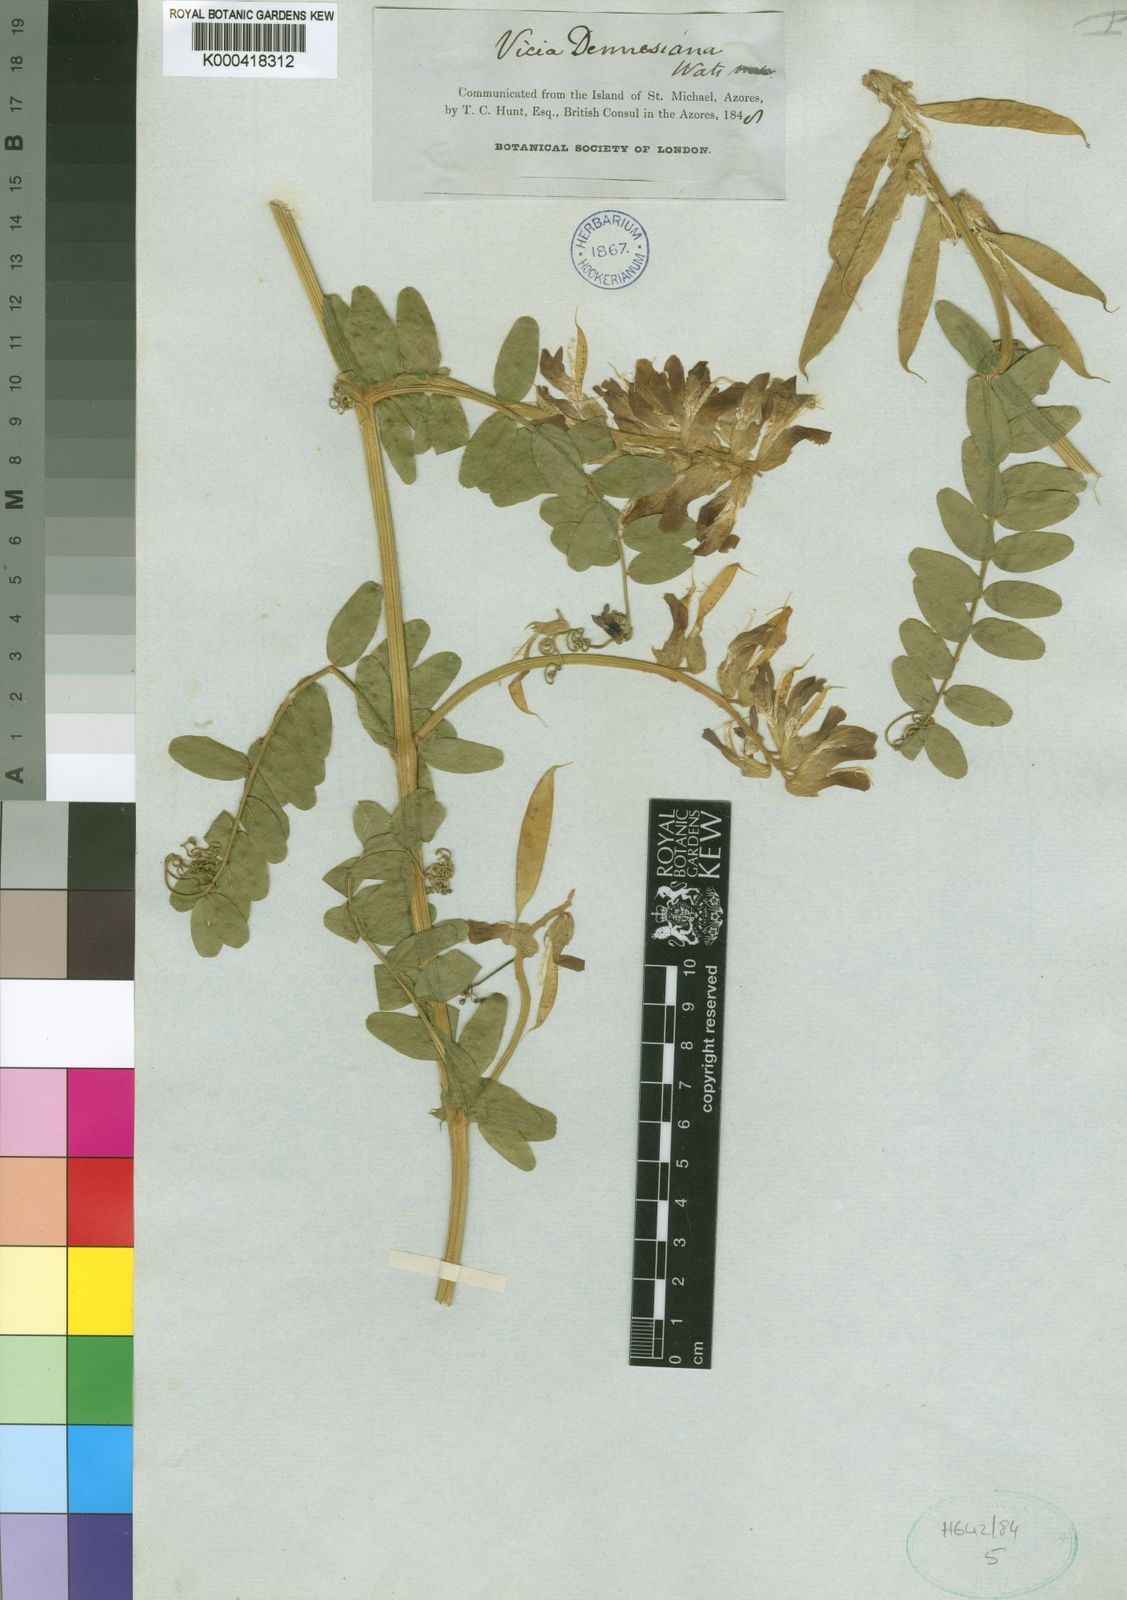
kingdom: Plantae
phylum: Tracheophyta
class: Magnoliopsida
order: Fabales
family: Fabaceae
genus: Vicia
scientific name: Vicia dennesiana
